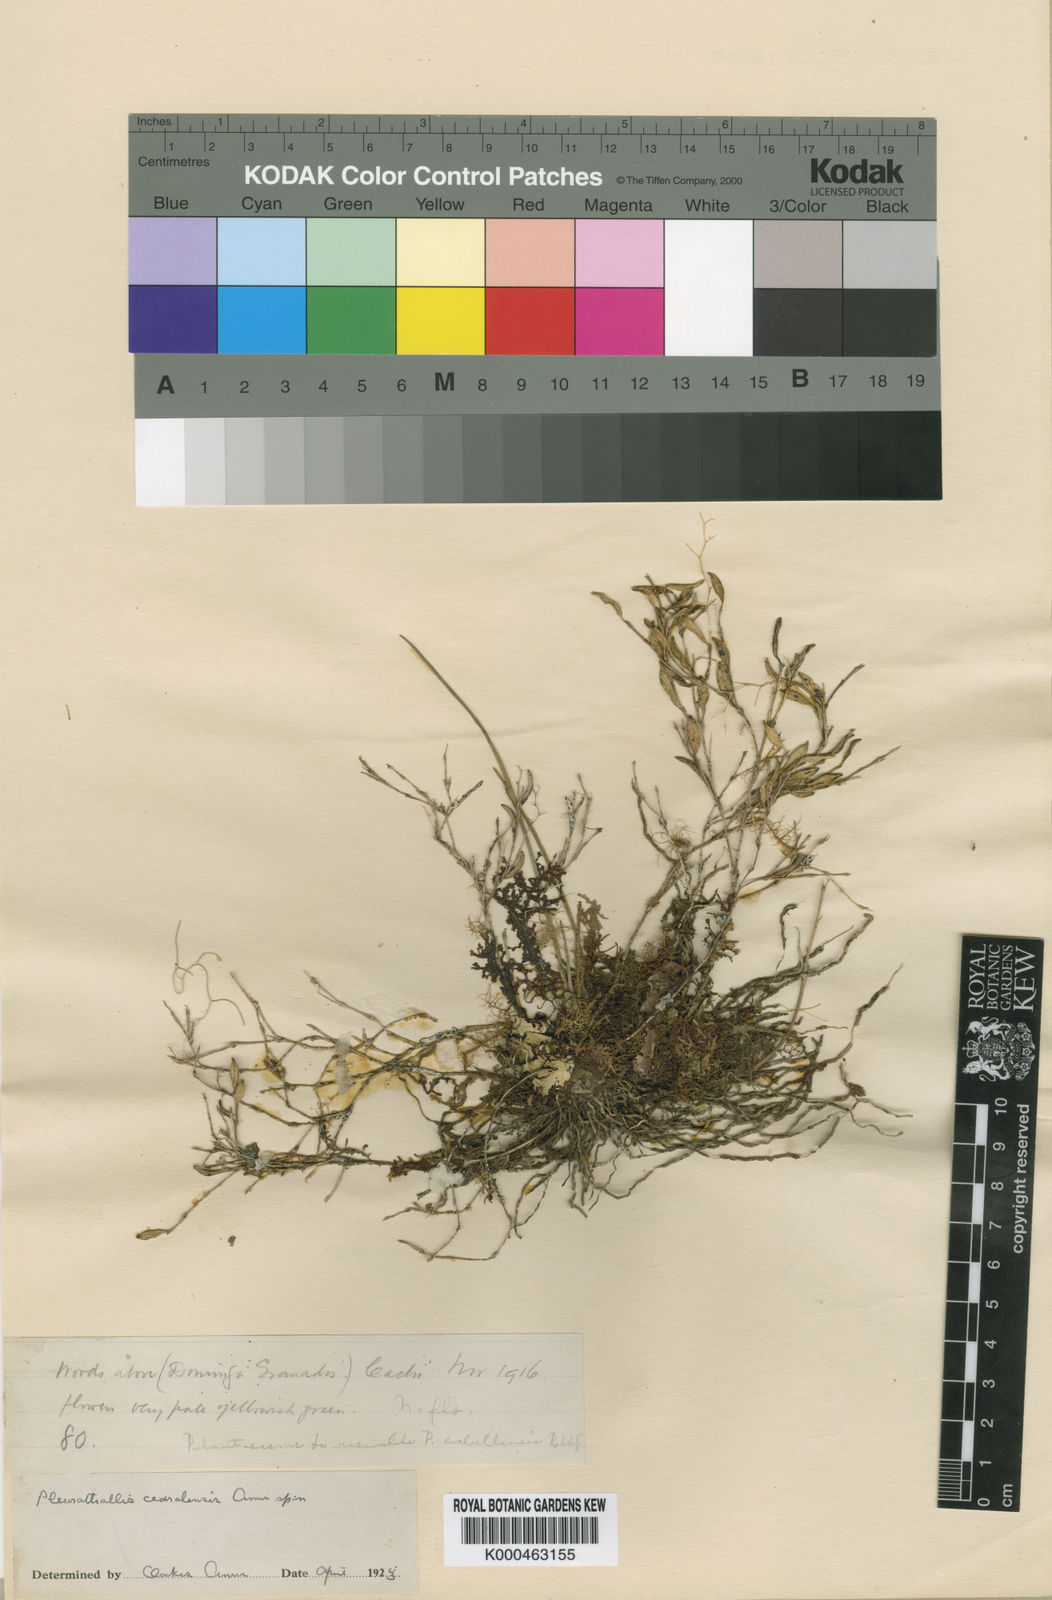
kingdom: Plantae
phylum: Tracheophyta
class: Liliopsida
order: Asparagales
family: Orchidaceae
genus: Trichosalpinx
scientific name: Trichosalpinx cedralensis
